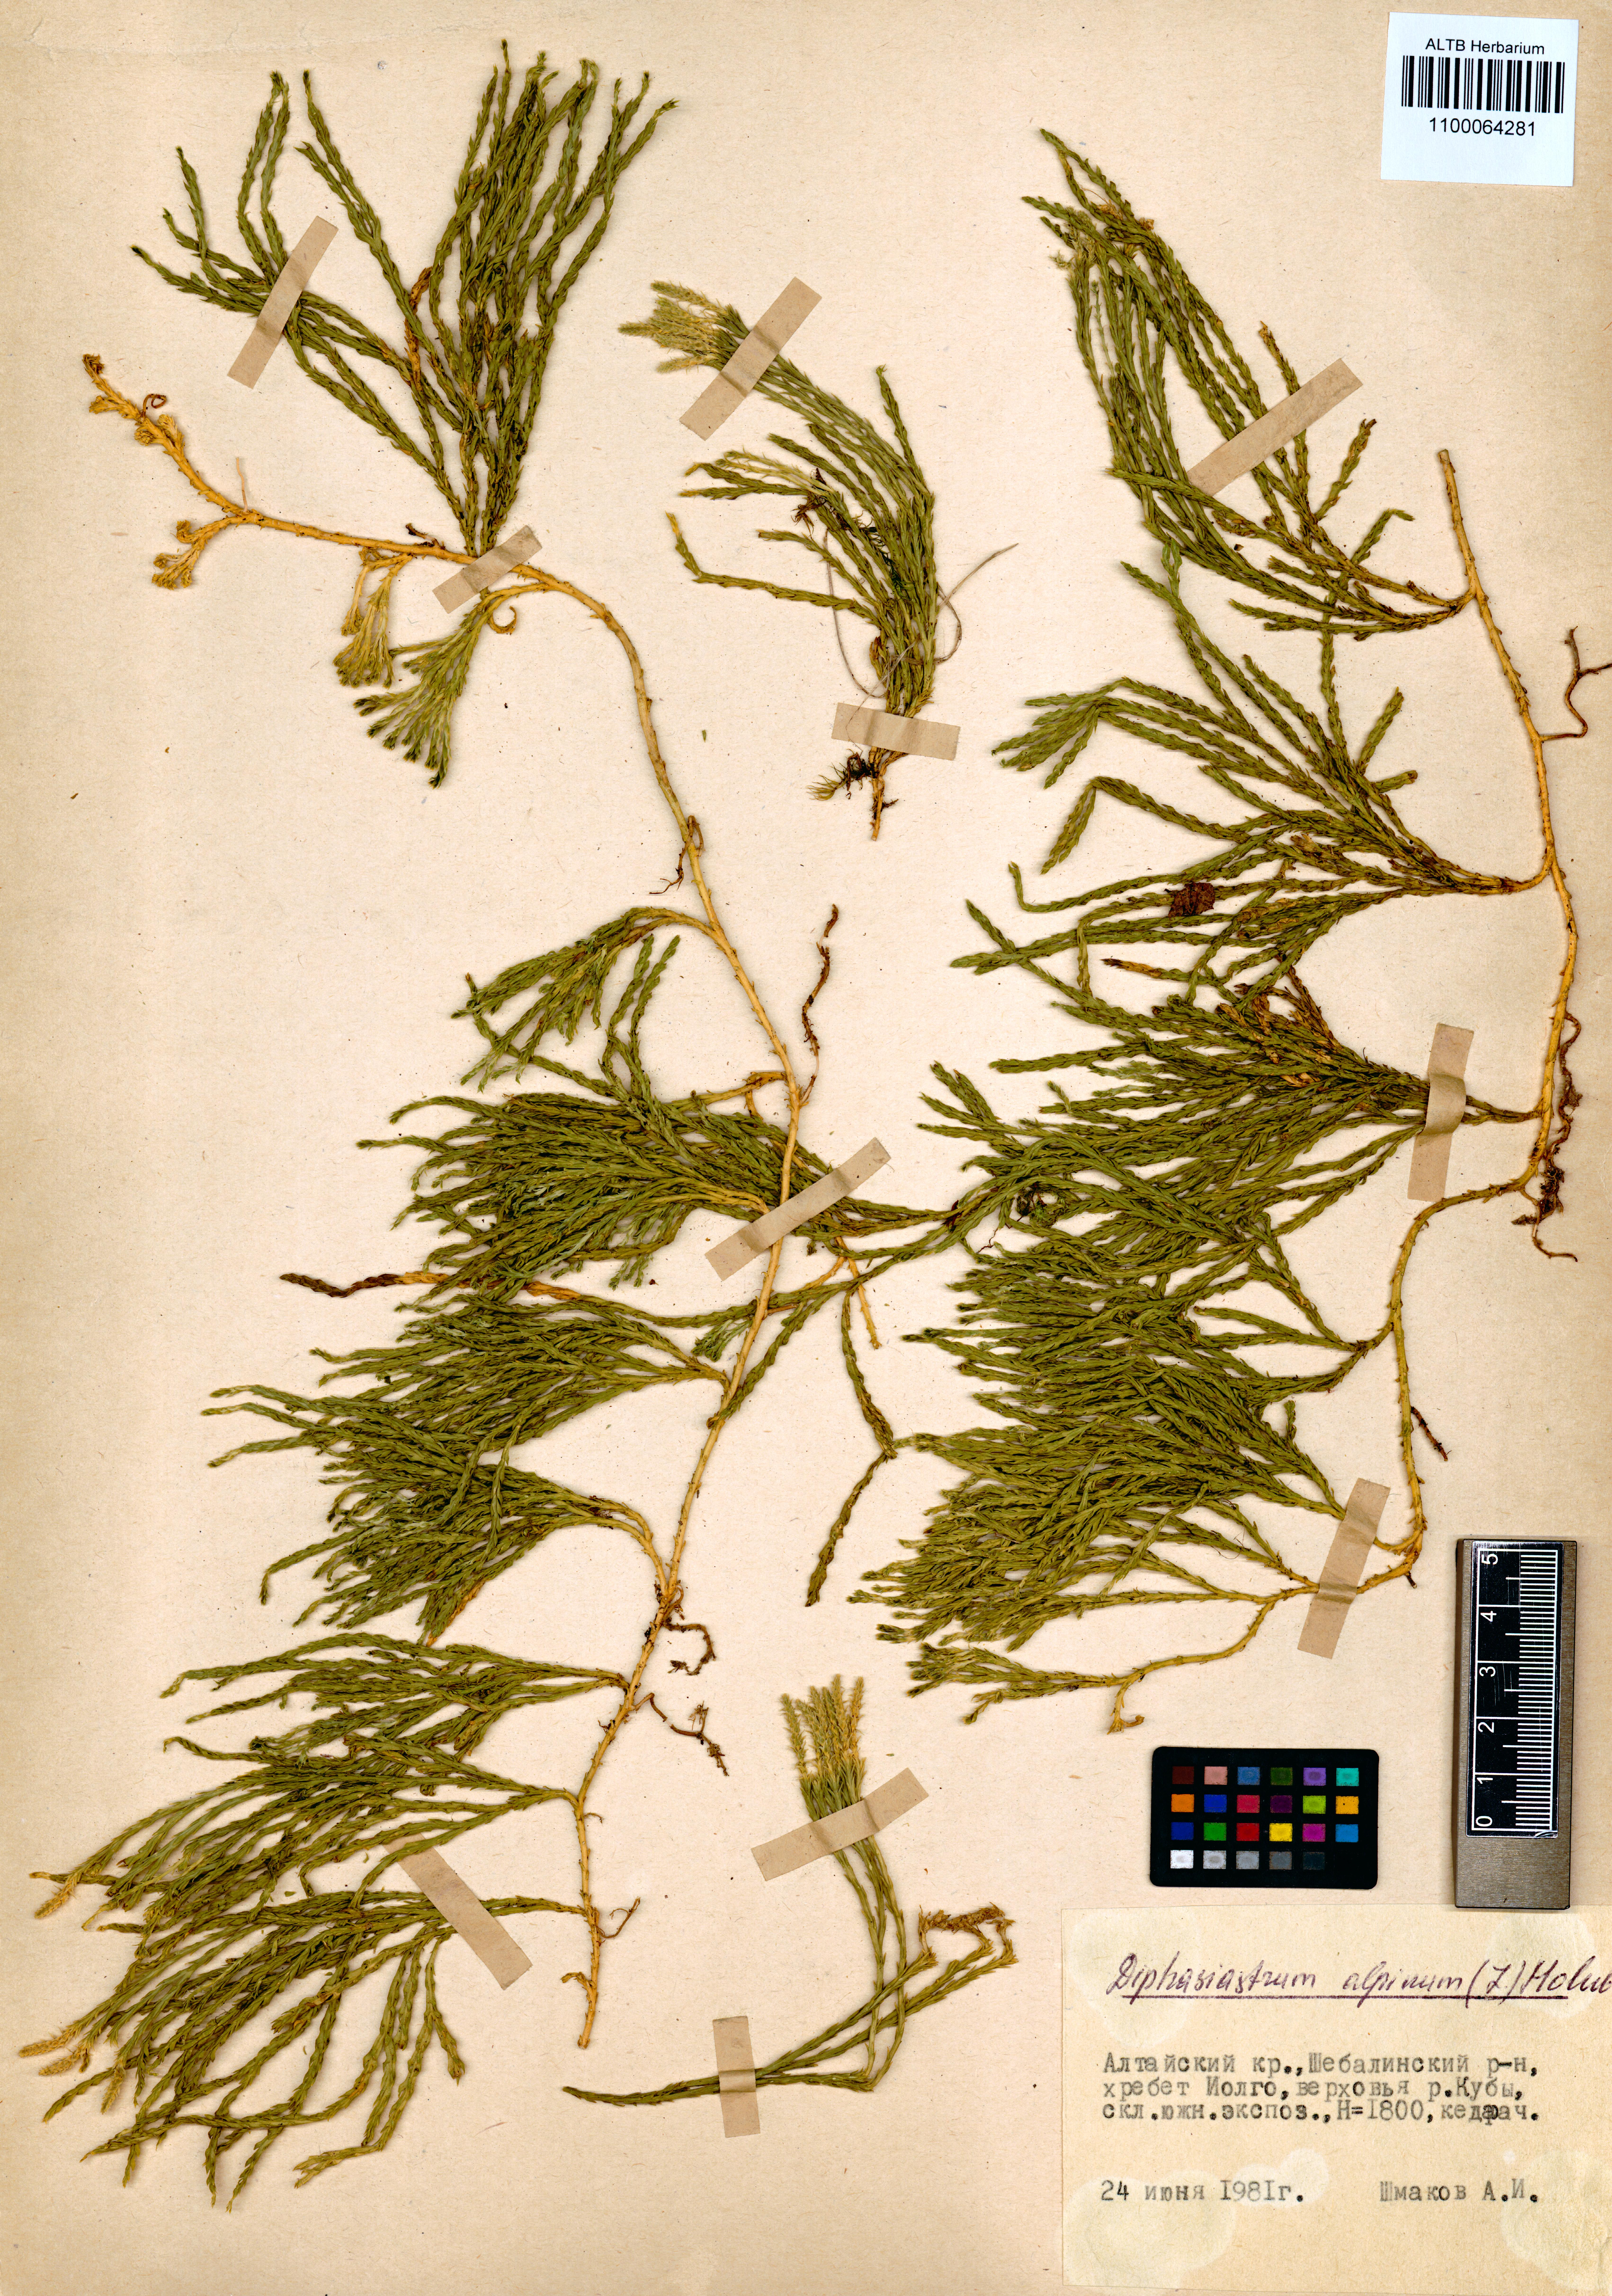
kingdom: Plantae
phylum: Tracheophyta
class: Lycopodiopsida
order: Lycopodiales
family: Lycopodiaceae
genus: Diphasiastrum
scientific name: Diphasiastrum alpinum
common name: Alpine clubmoss
